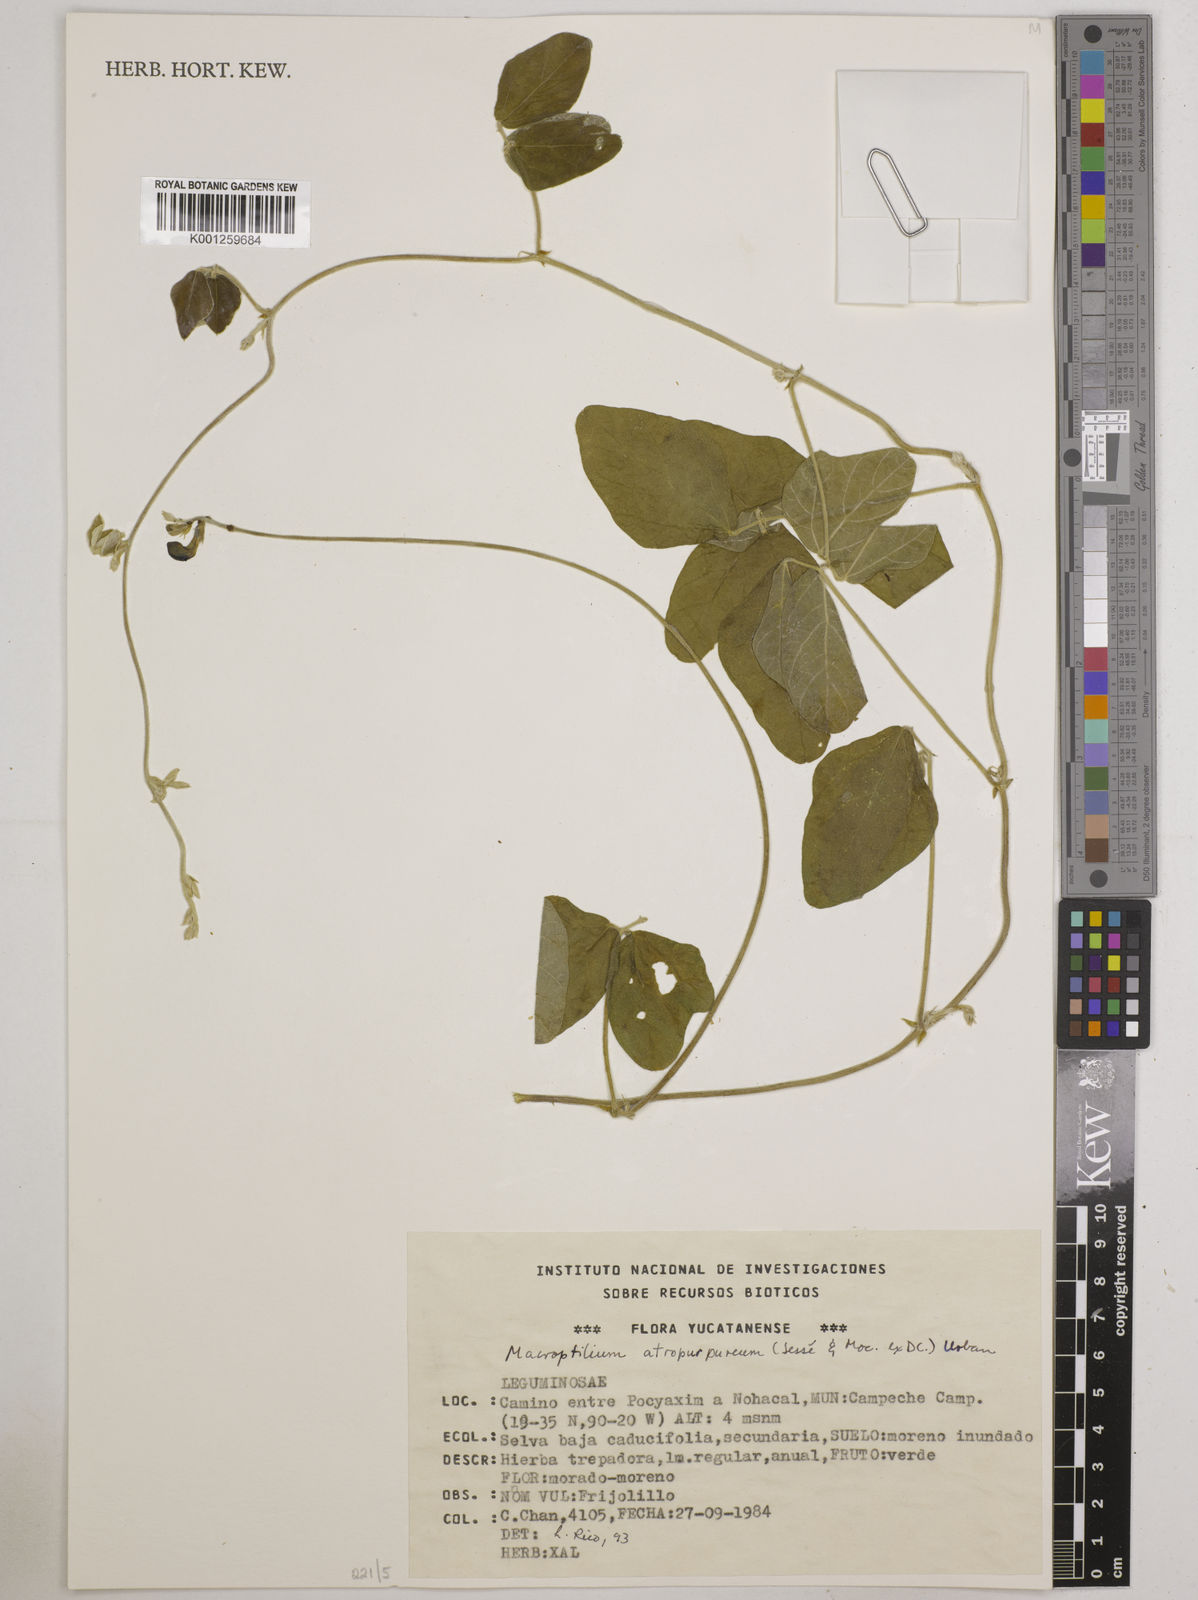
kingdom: Plantae
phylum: Tracheophyta
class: Magnoliopsida
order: Fabales
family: Fabaceae
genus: Macroptilium
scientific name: Macroptilium atropurpureum
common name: Purple bushbean
